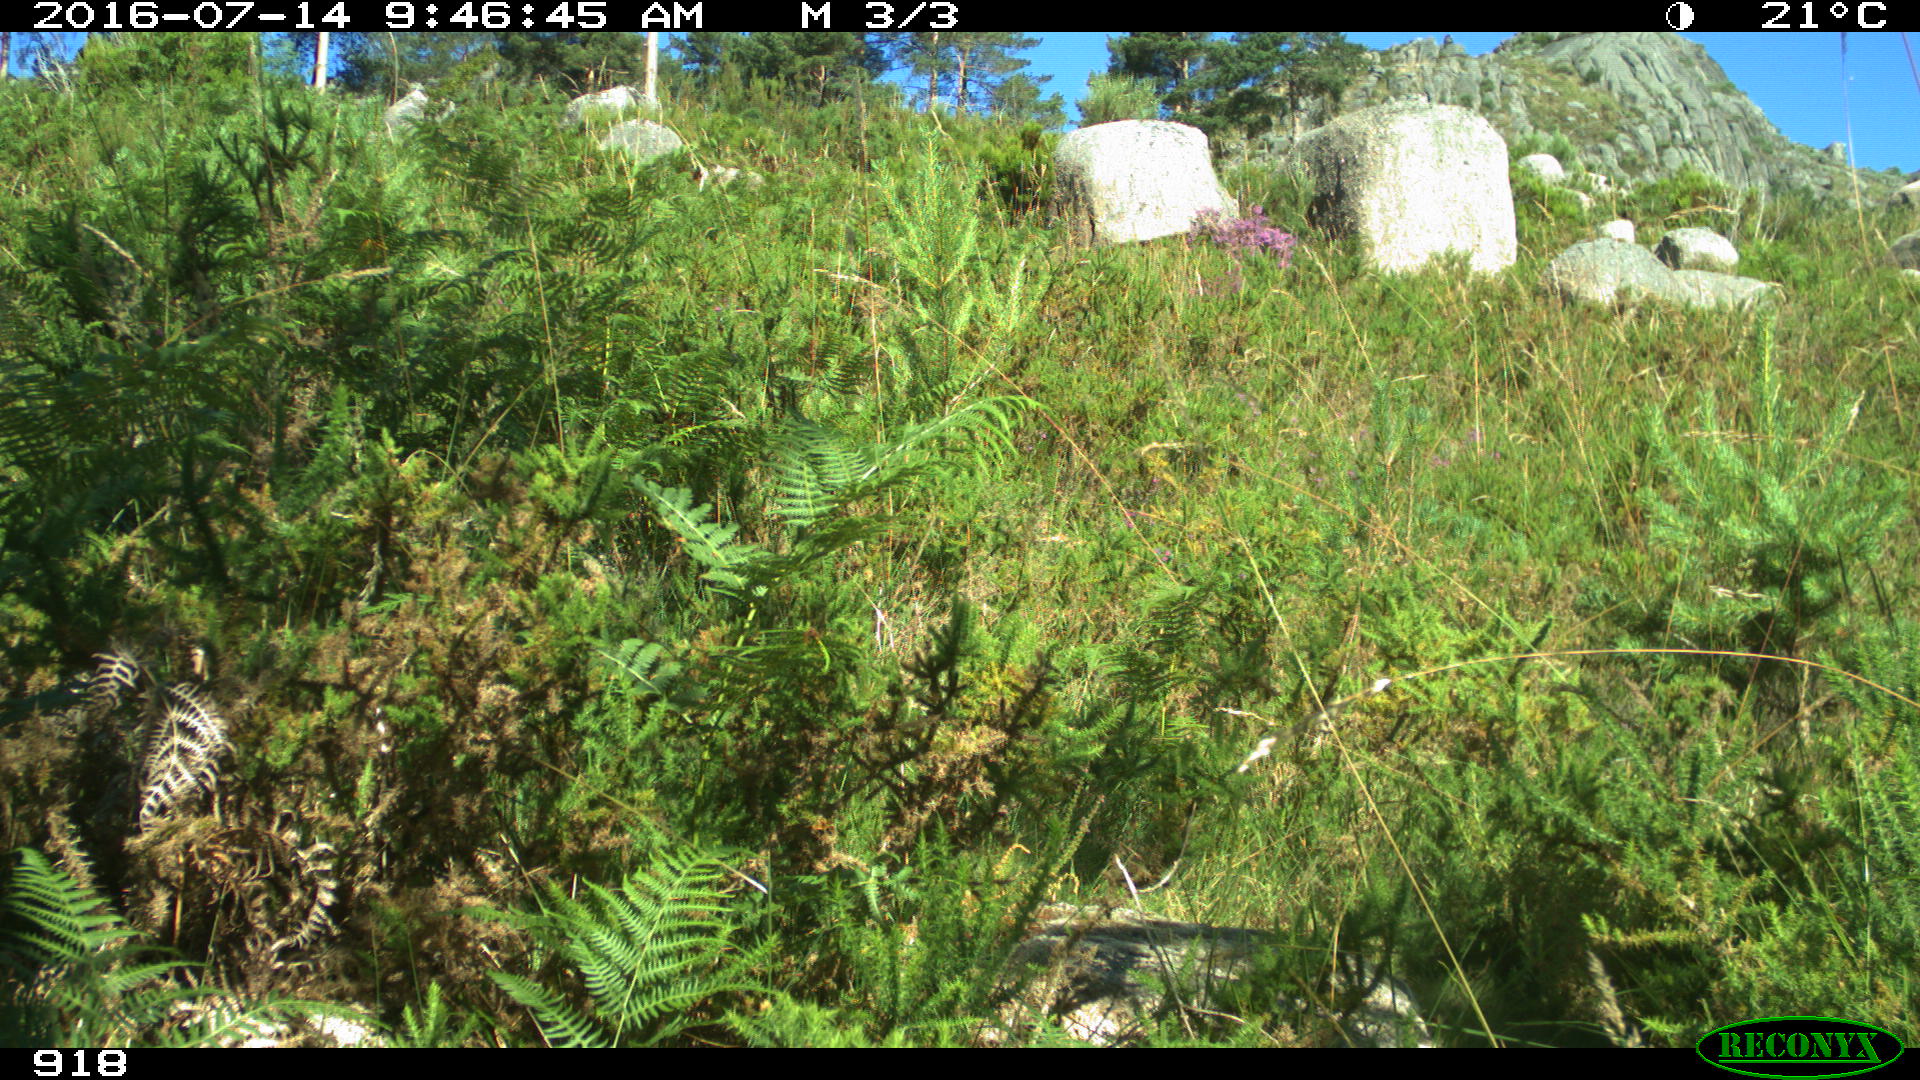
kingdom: Animalia
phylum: Chordata
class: Mammalia
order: Carnivora
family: Canidae
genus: Canis
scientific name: Canis lupus
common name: Gray wolf
